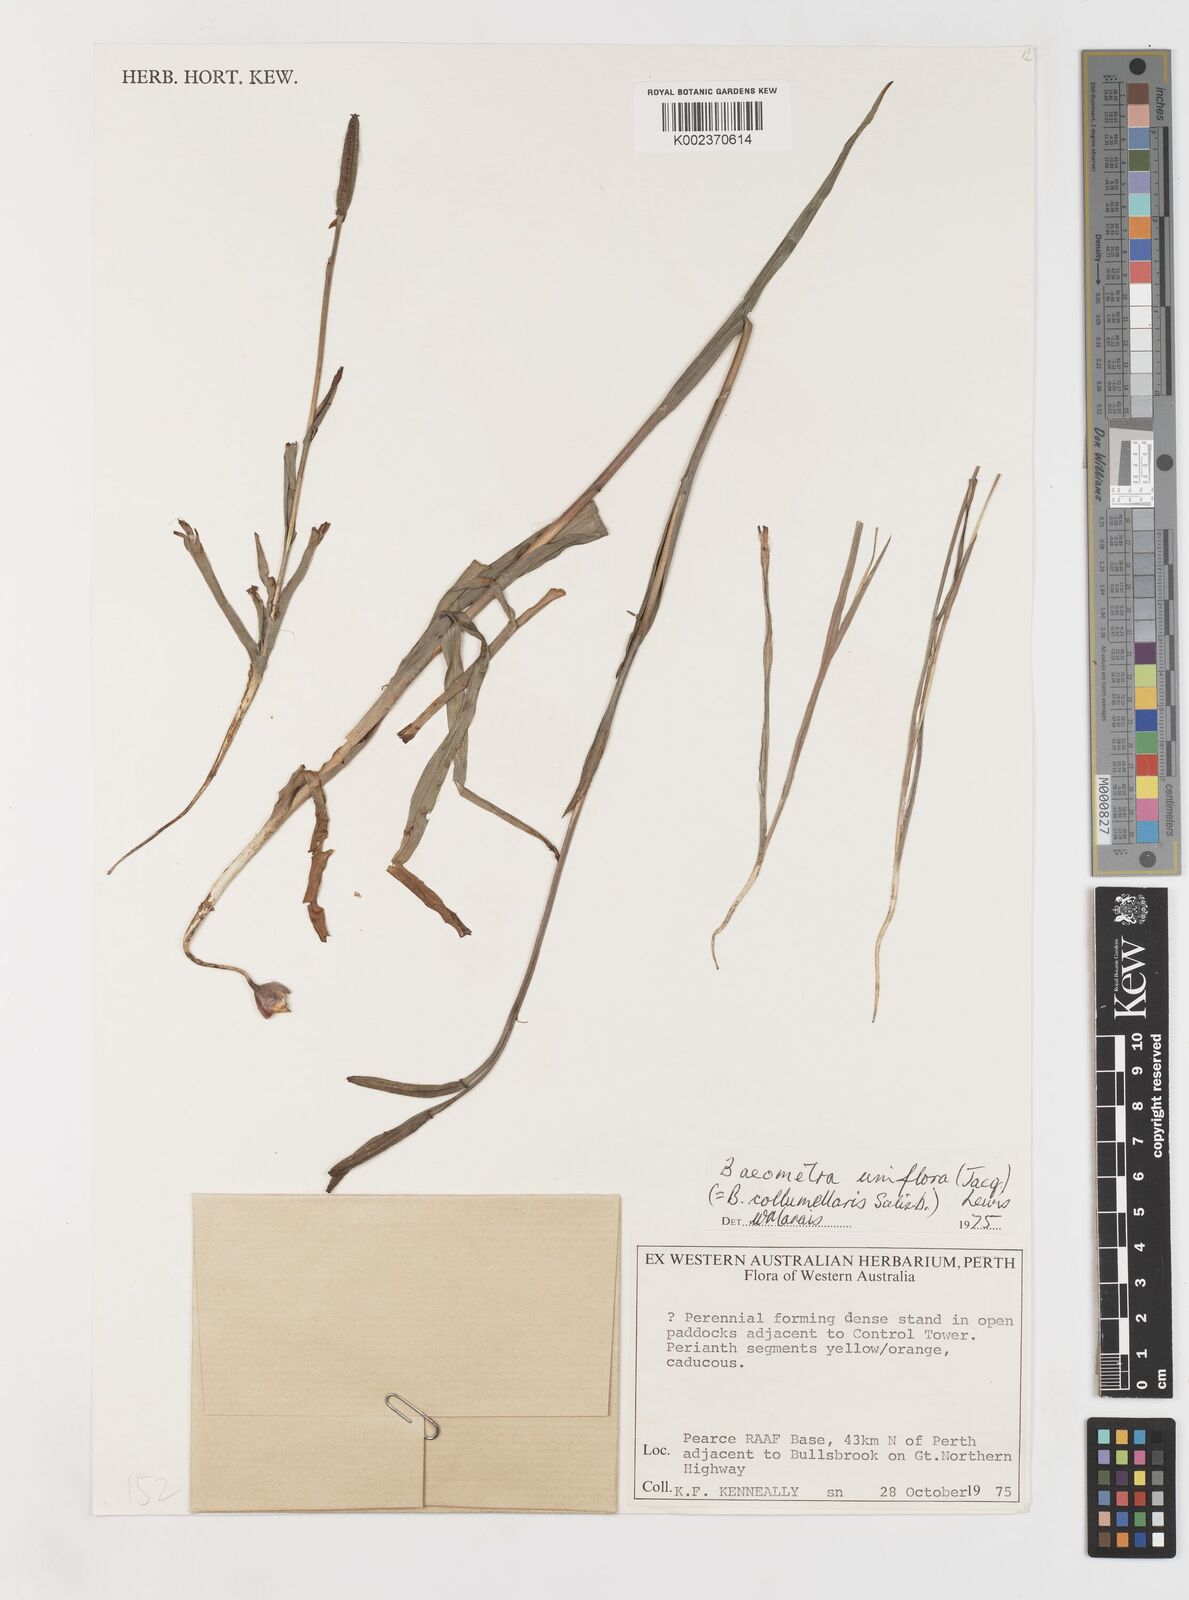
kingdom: Plantae
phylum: Tracheophyta
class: Liliopsida
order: Liliales
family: Colchicaceae
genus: Baeometra
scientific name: Baeometra uniflora
